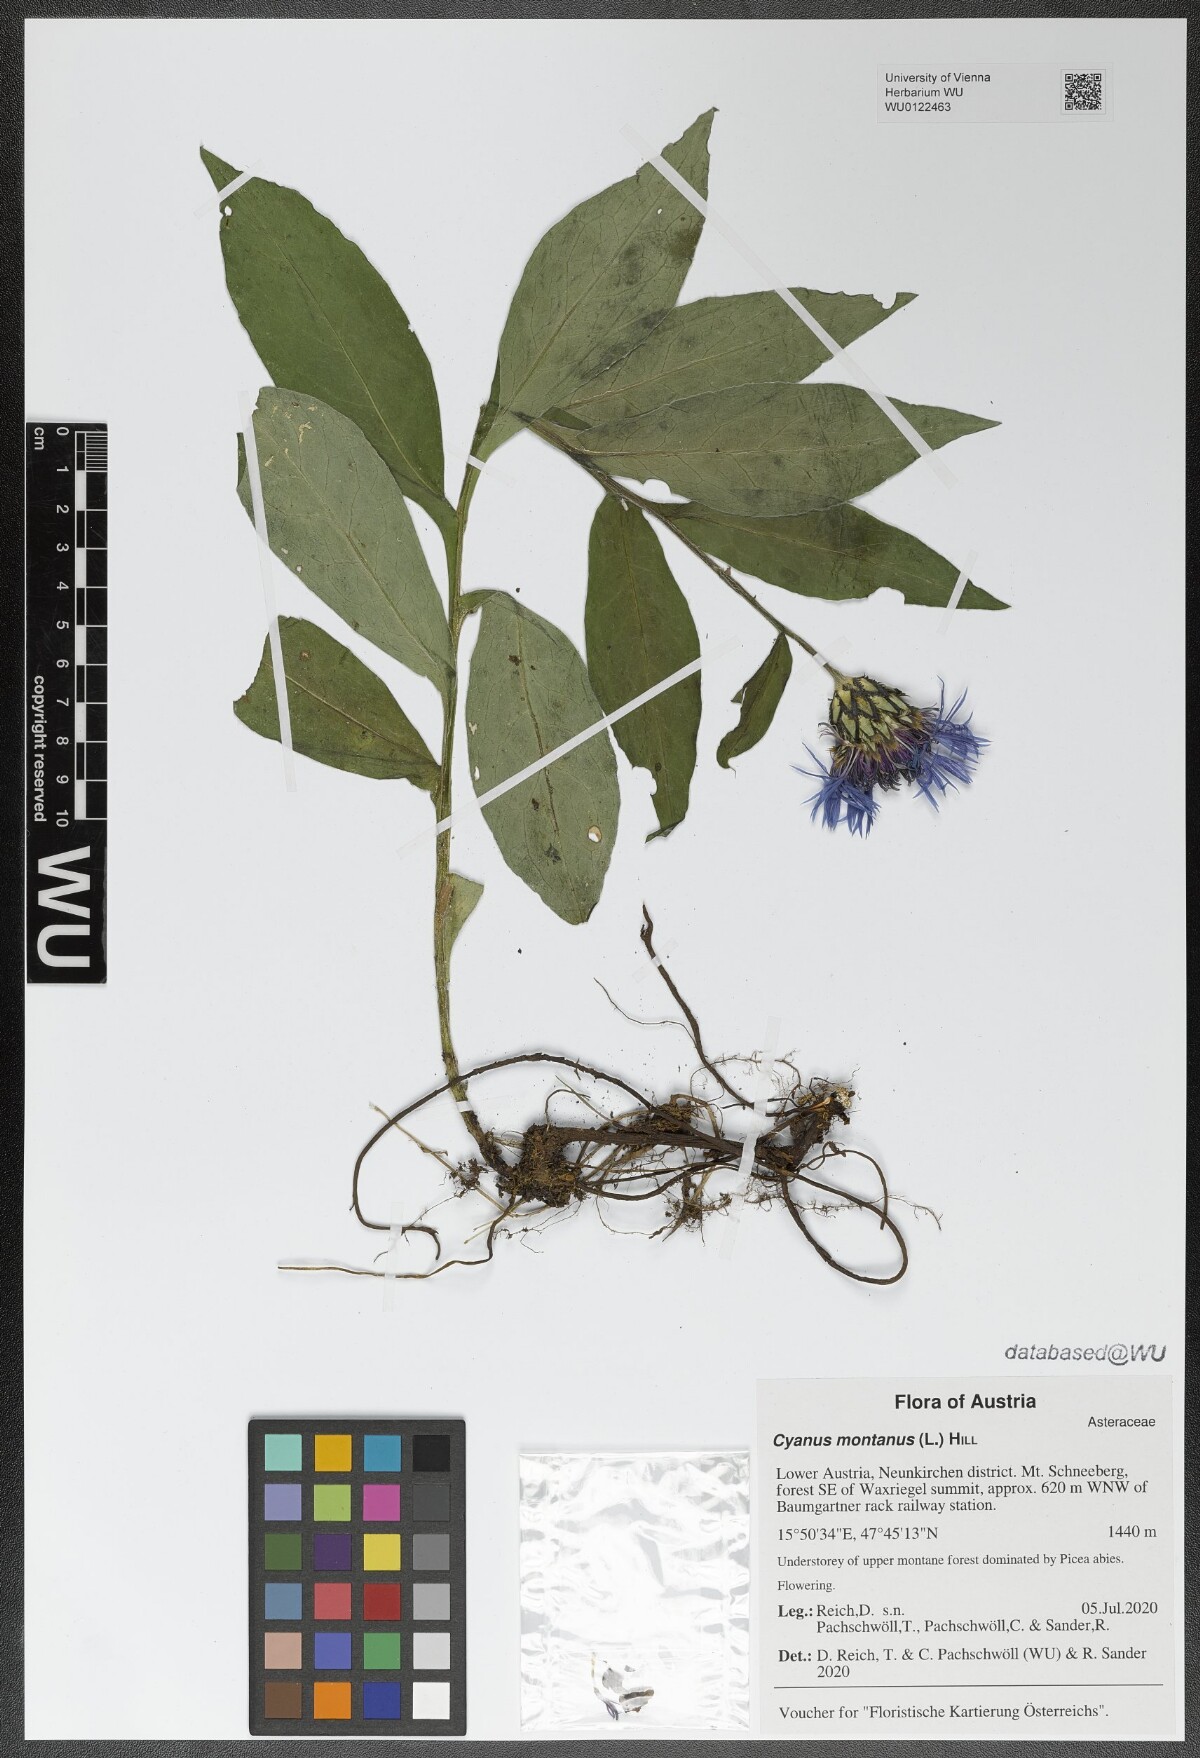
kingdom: Plantae
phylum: Tracheophyta
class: Magnoliopsida
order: Asterales
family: Asteraceae
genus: Centaurea
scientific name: Centaurea montana
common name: Perennial cornflower
